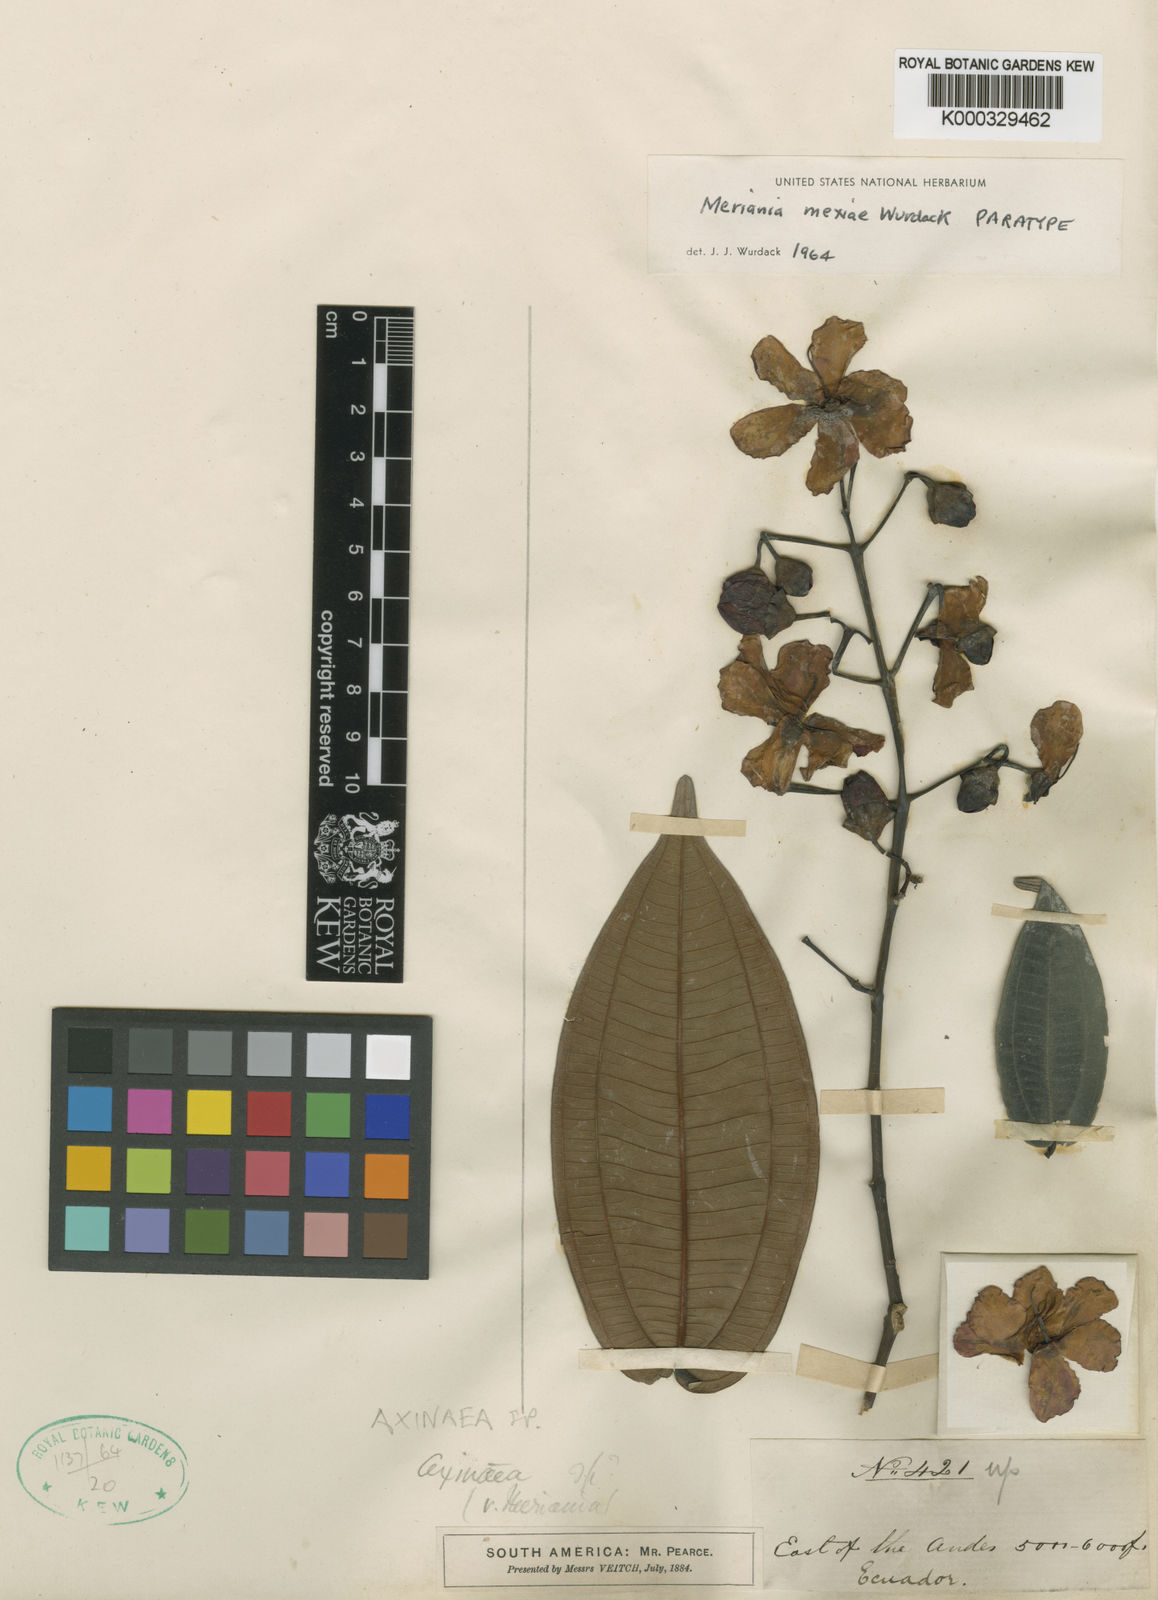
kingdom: Plantae
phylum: Tracheophyta
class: Magnoliopsida
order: Myrtales
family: Melastomataceae
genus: Meriania
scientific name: Meriania mexiae
